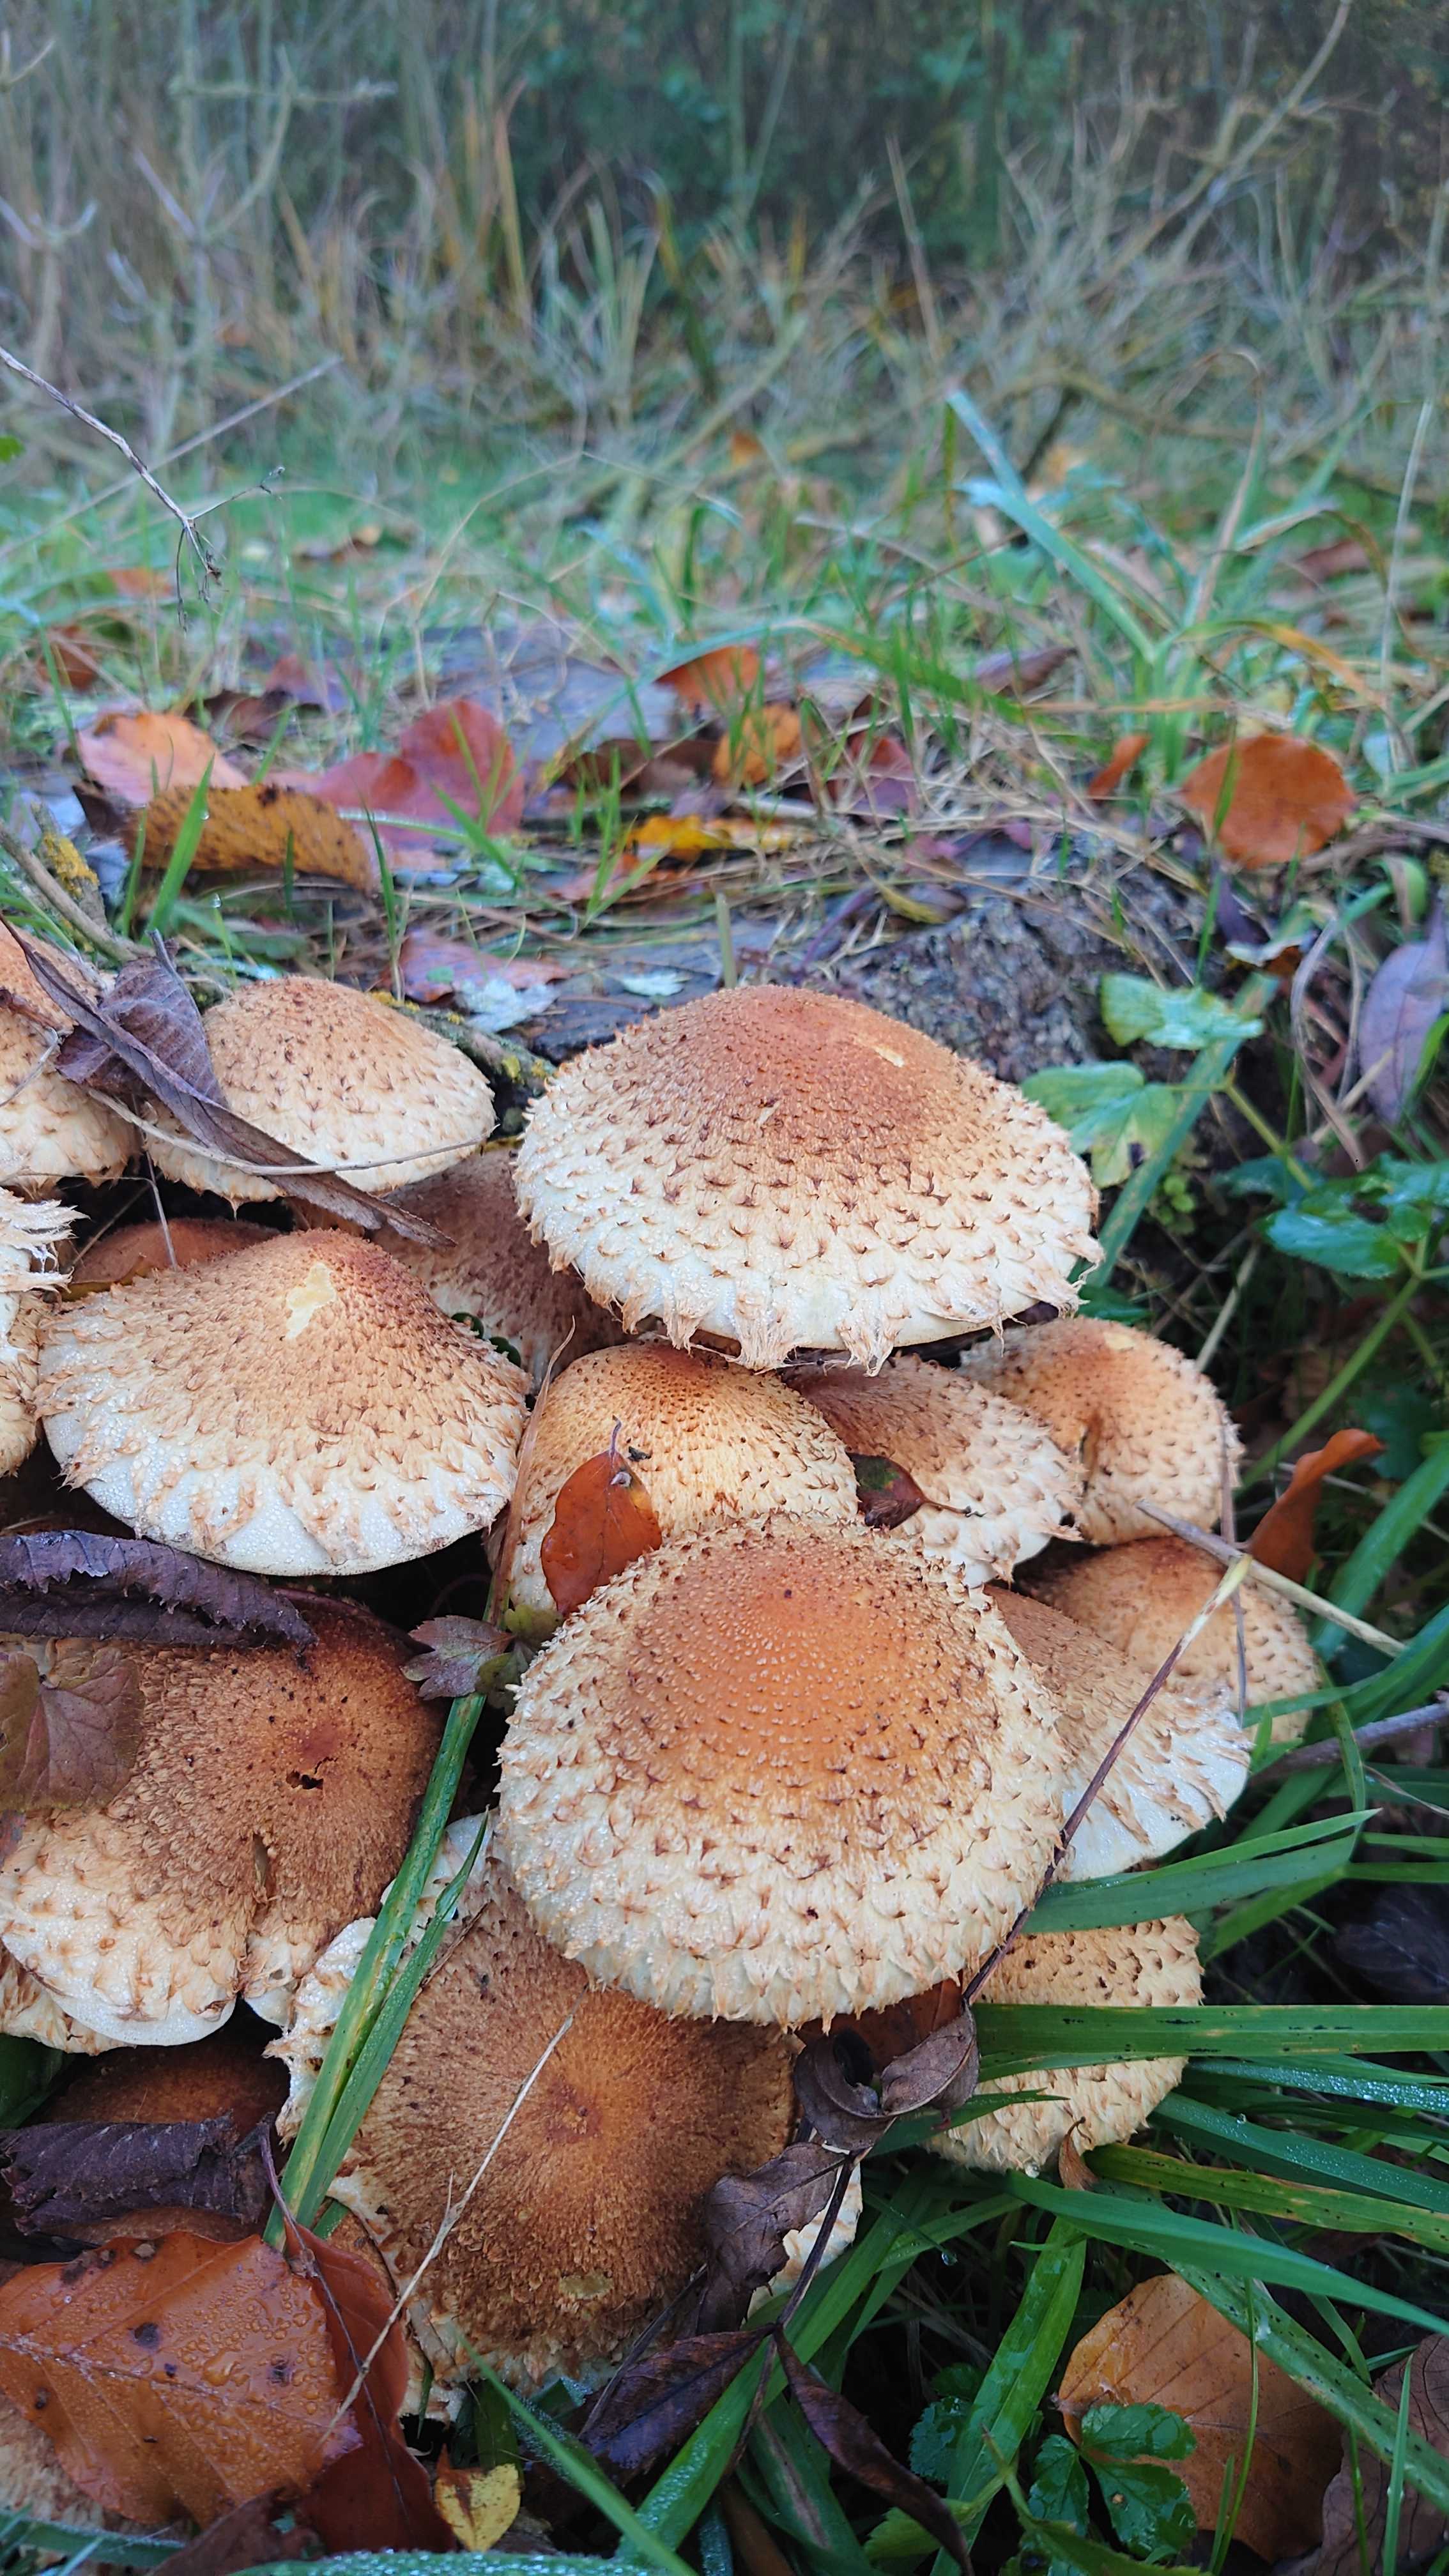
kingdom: Fungi
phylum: Basidiomycota
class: Agaricomycetes
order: Agaricales
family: Strophariaceae
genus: Pholiota
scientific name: Pholiota squarrosa
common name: krumskællet skælhat
